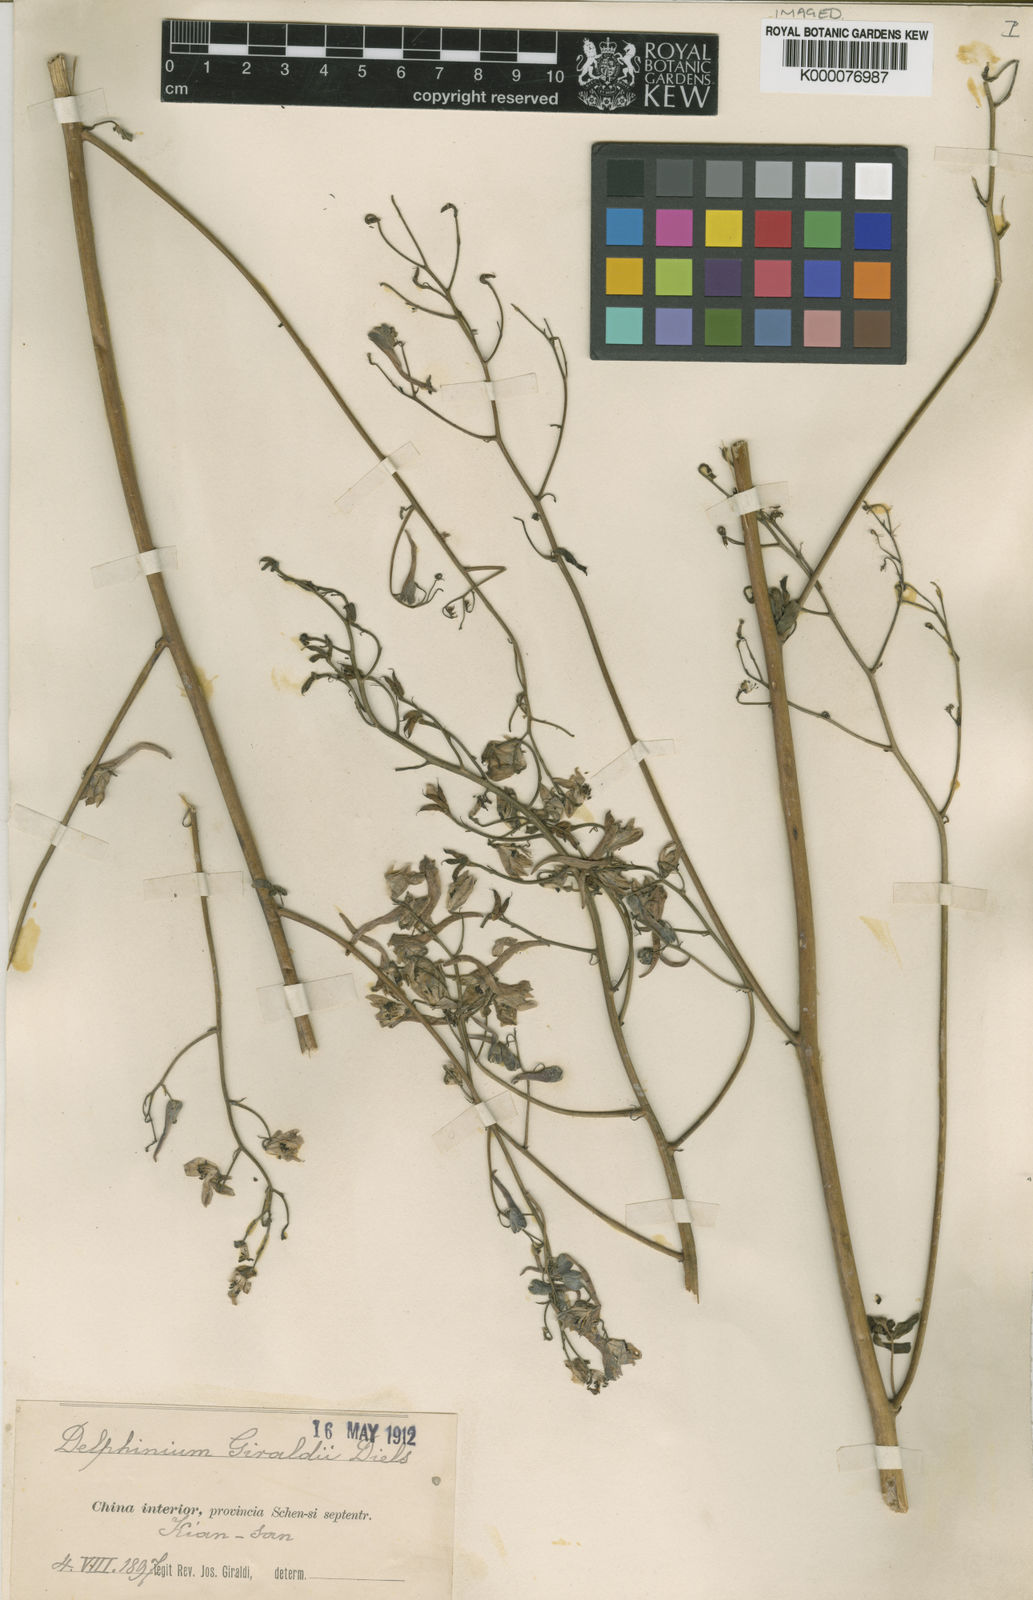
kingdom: Plantae
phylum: Tracheophyta
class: Magnoliopsida
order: Ranunculales
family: Ranunculaceae
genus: Delphinium
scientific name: Delphinium giraldii
